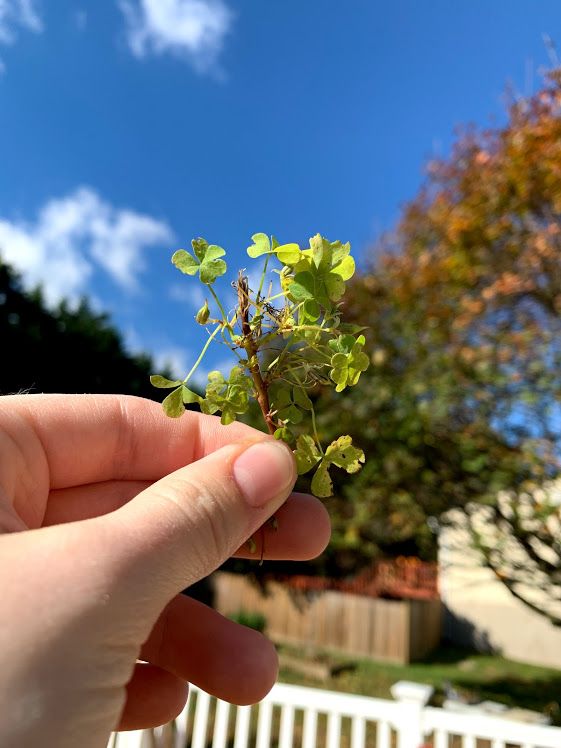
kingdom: Plantae
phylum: Tracheophyta
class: Magnoliopsida
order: Oxalidales
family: Oxalidaceae
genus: Oxalis
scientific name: Oxalis corniculata
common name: Creeping Woodsorrel
